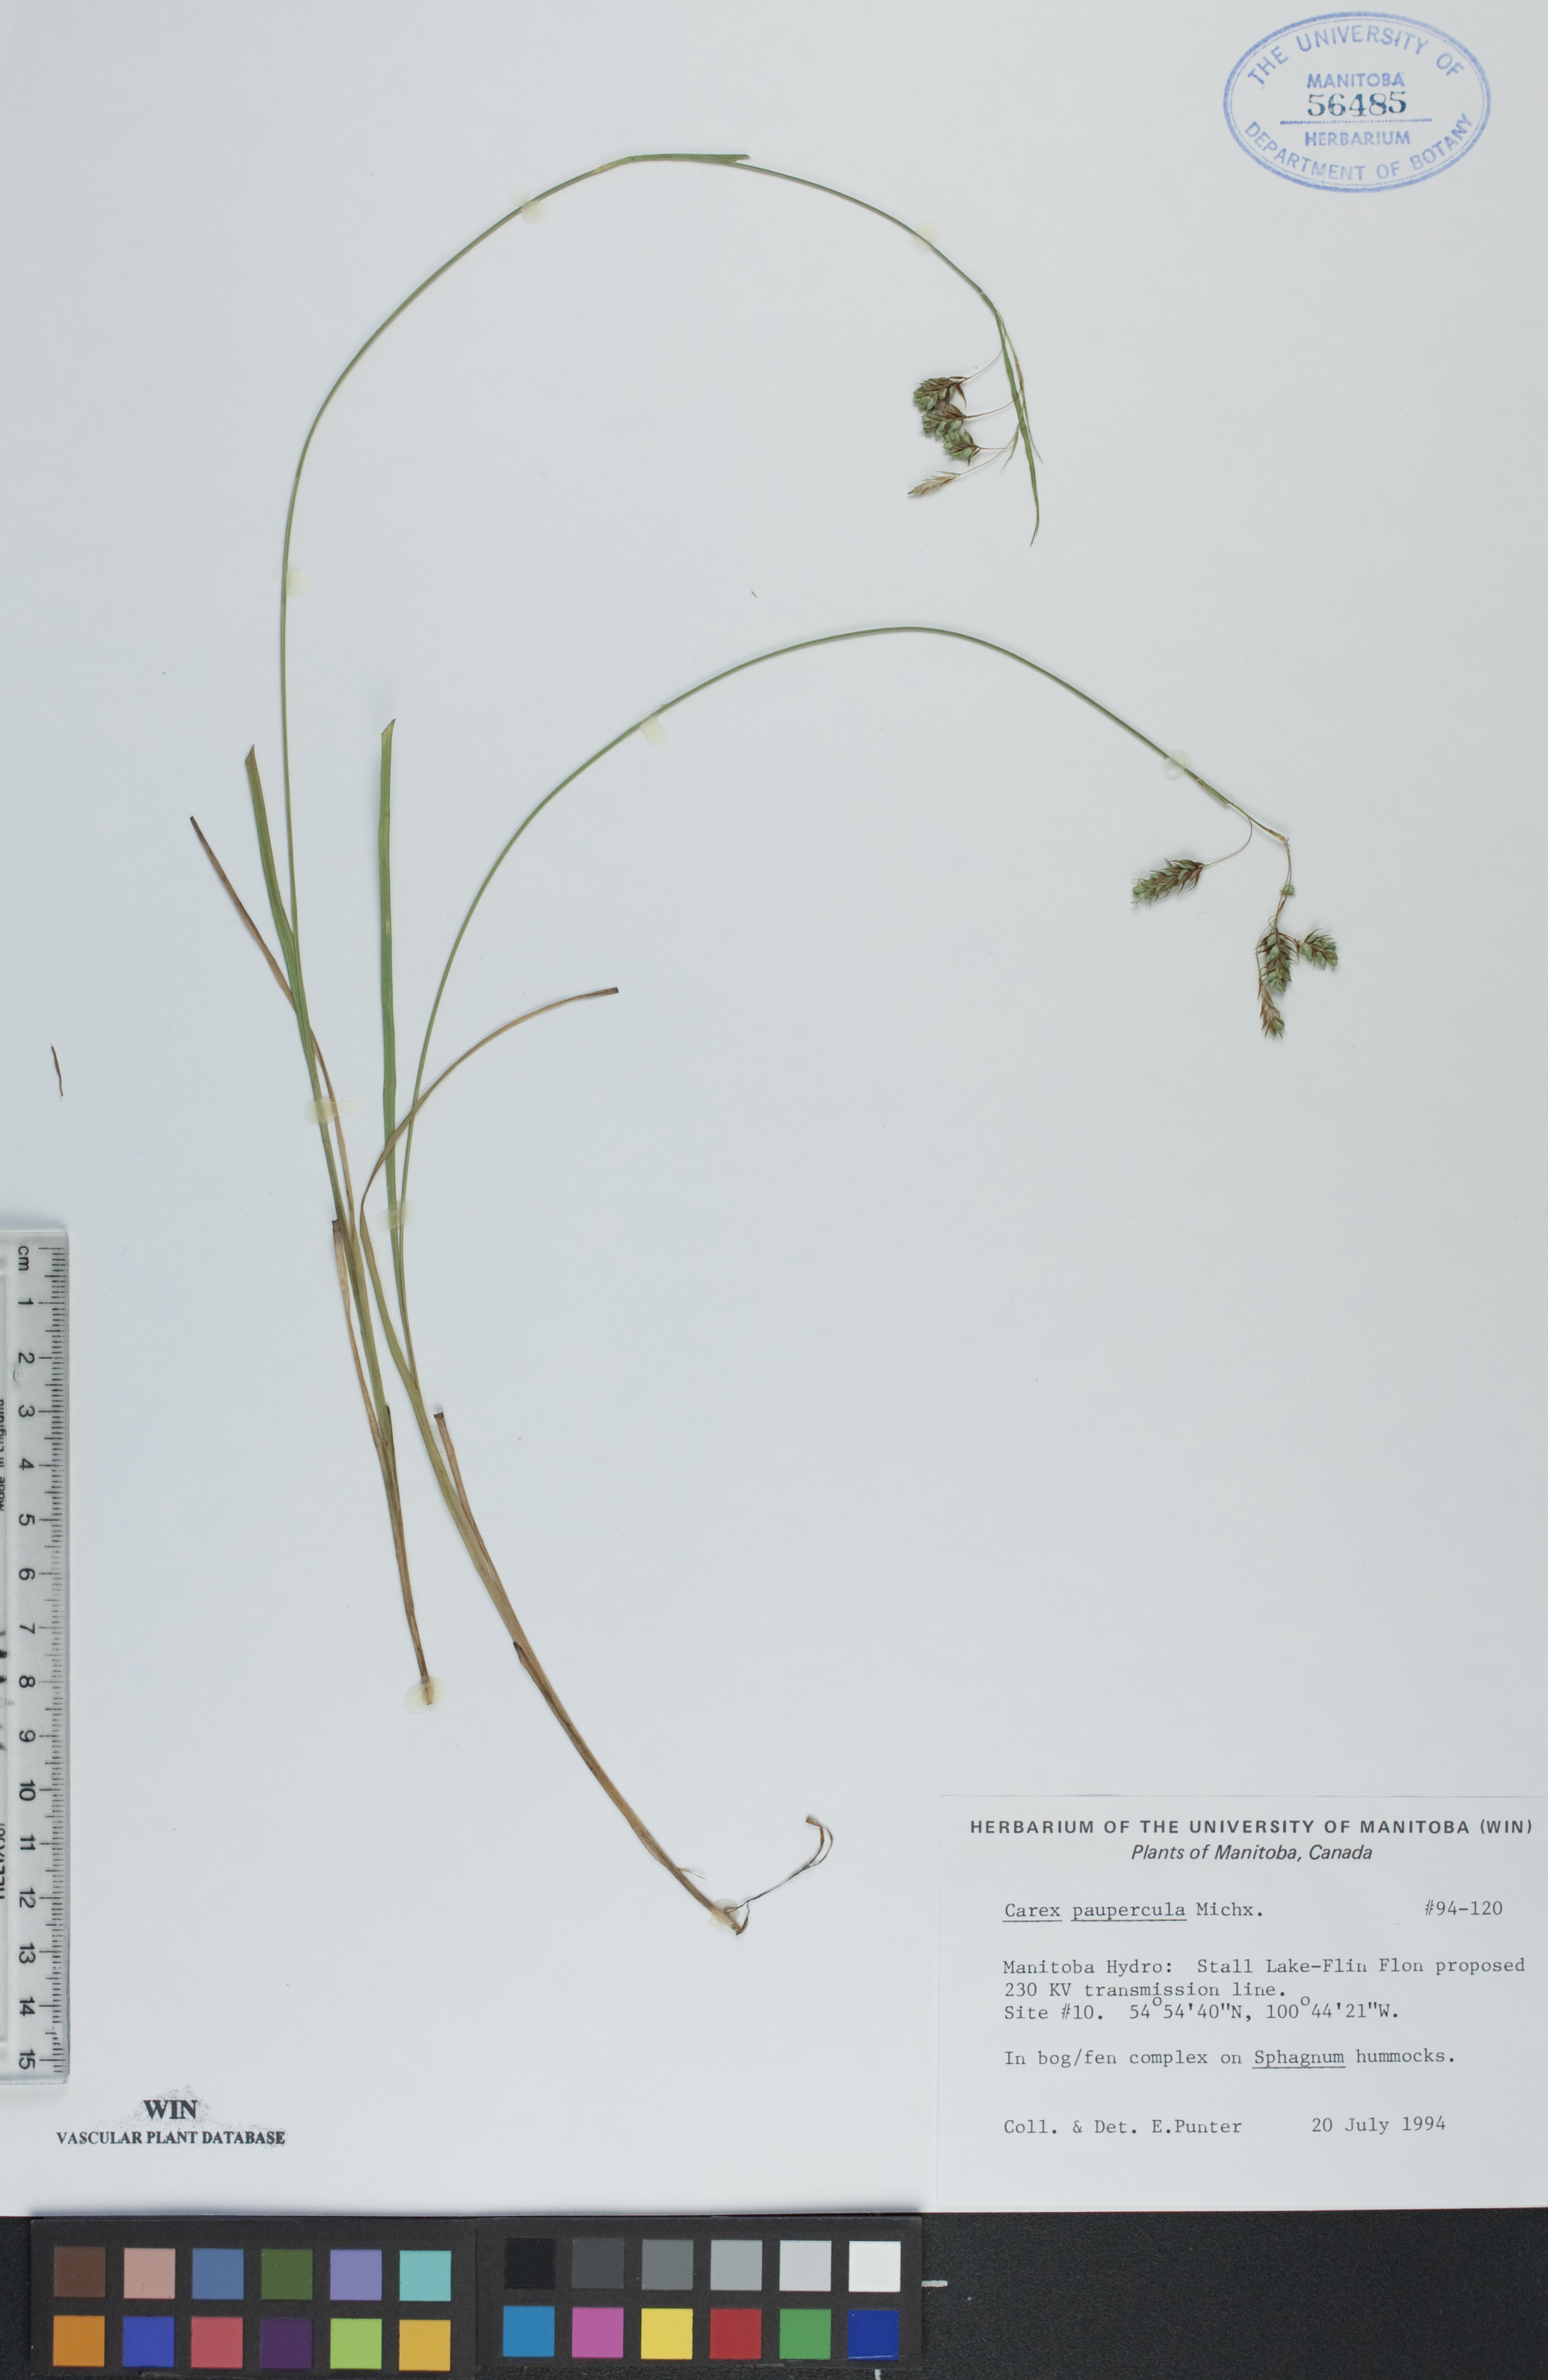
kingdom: Plantae
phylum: Tracheophyta
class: Liliopsida
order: Poales
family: Cyperaceae
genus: Carex
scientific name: Carex magellanica
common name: Bog sedge
